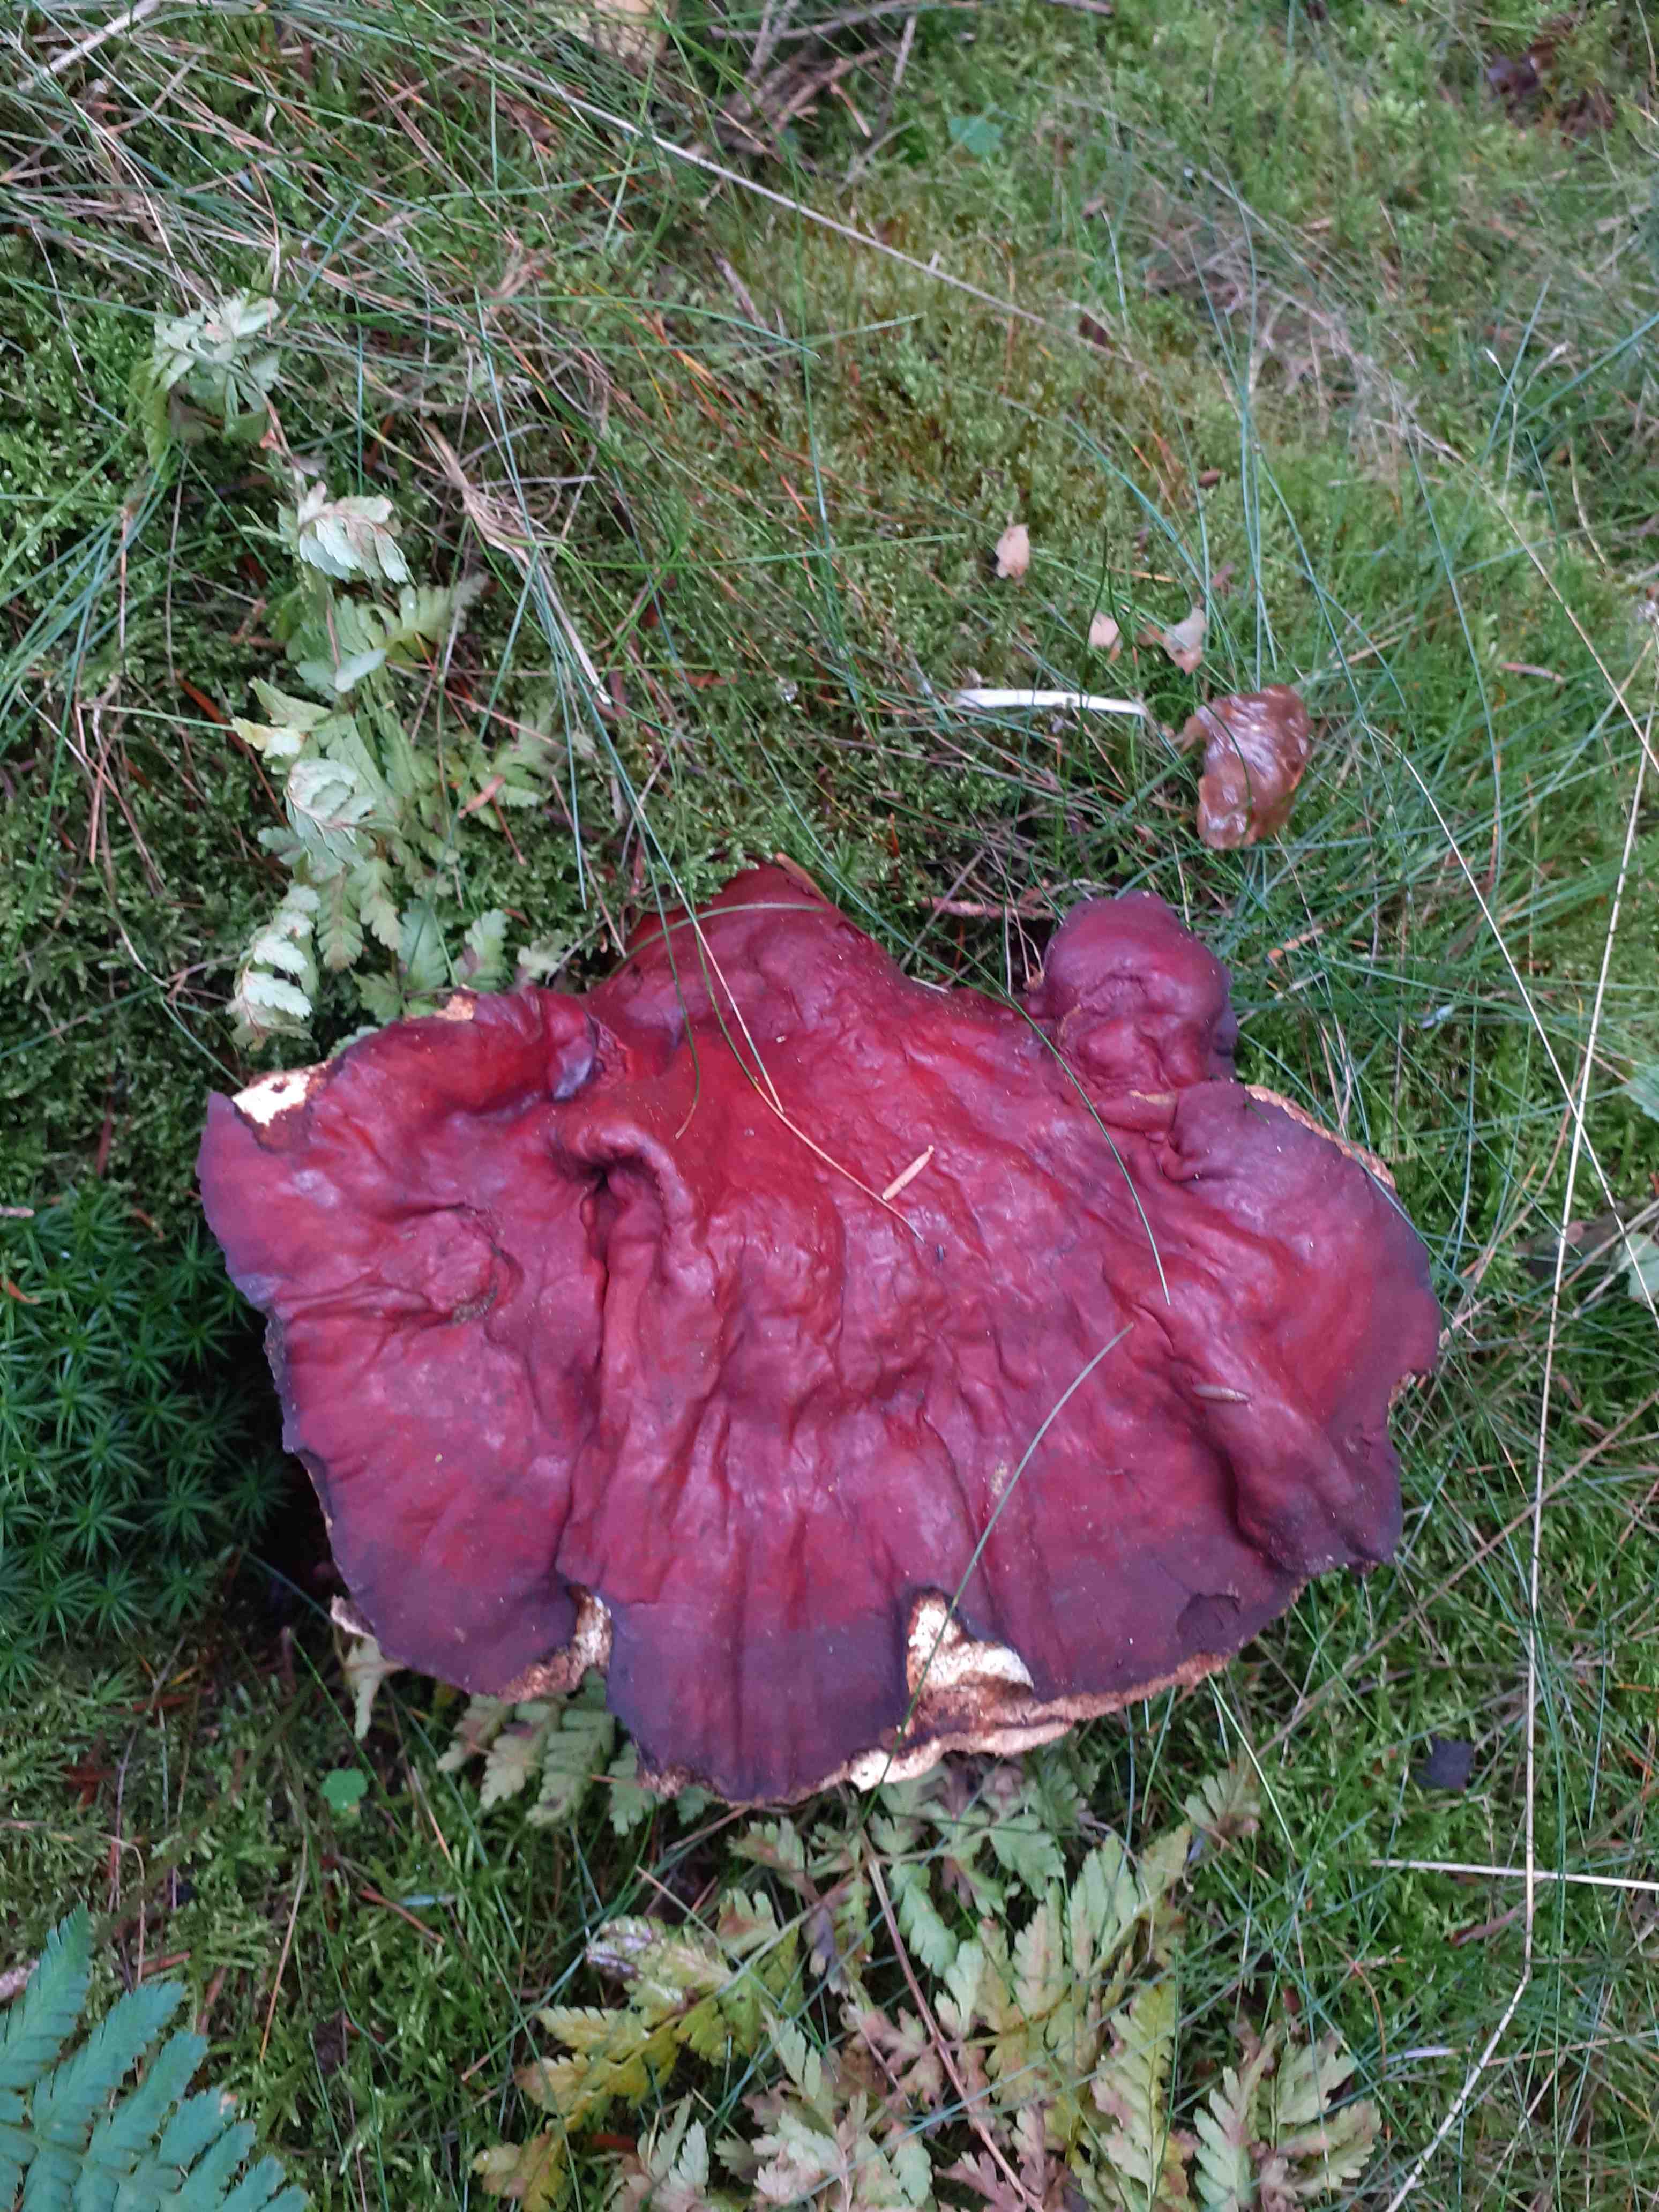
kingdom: Fungi
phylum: Basidiomycota
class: Agaricomycetes
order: Polyporales
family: Polyporaceae
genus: Ganoderma
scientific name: Ganoderma lucidum
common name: skinnende lakporesvamp
